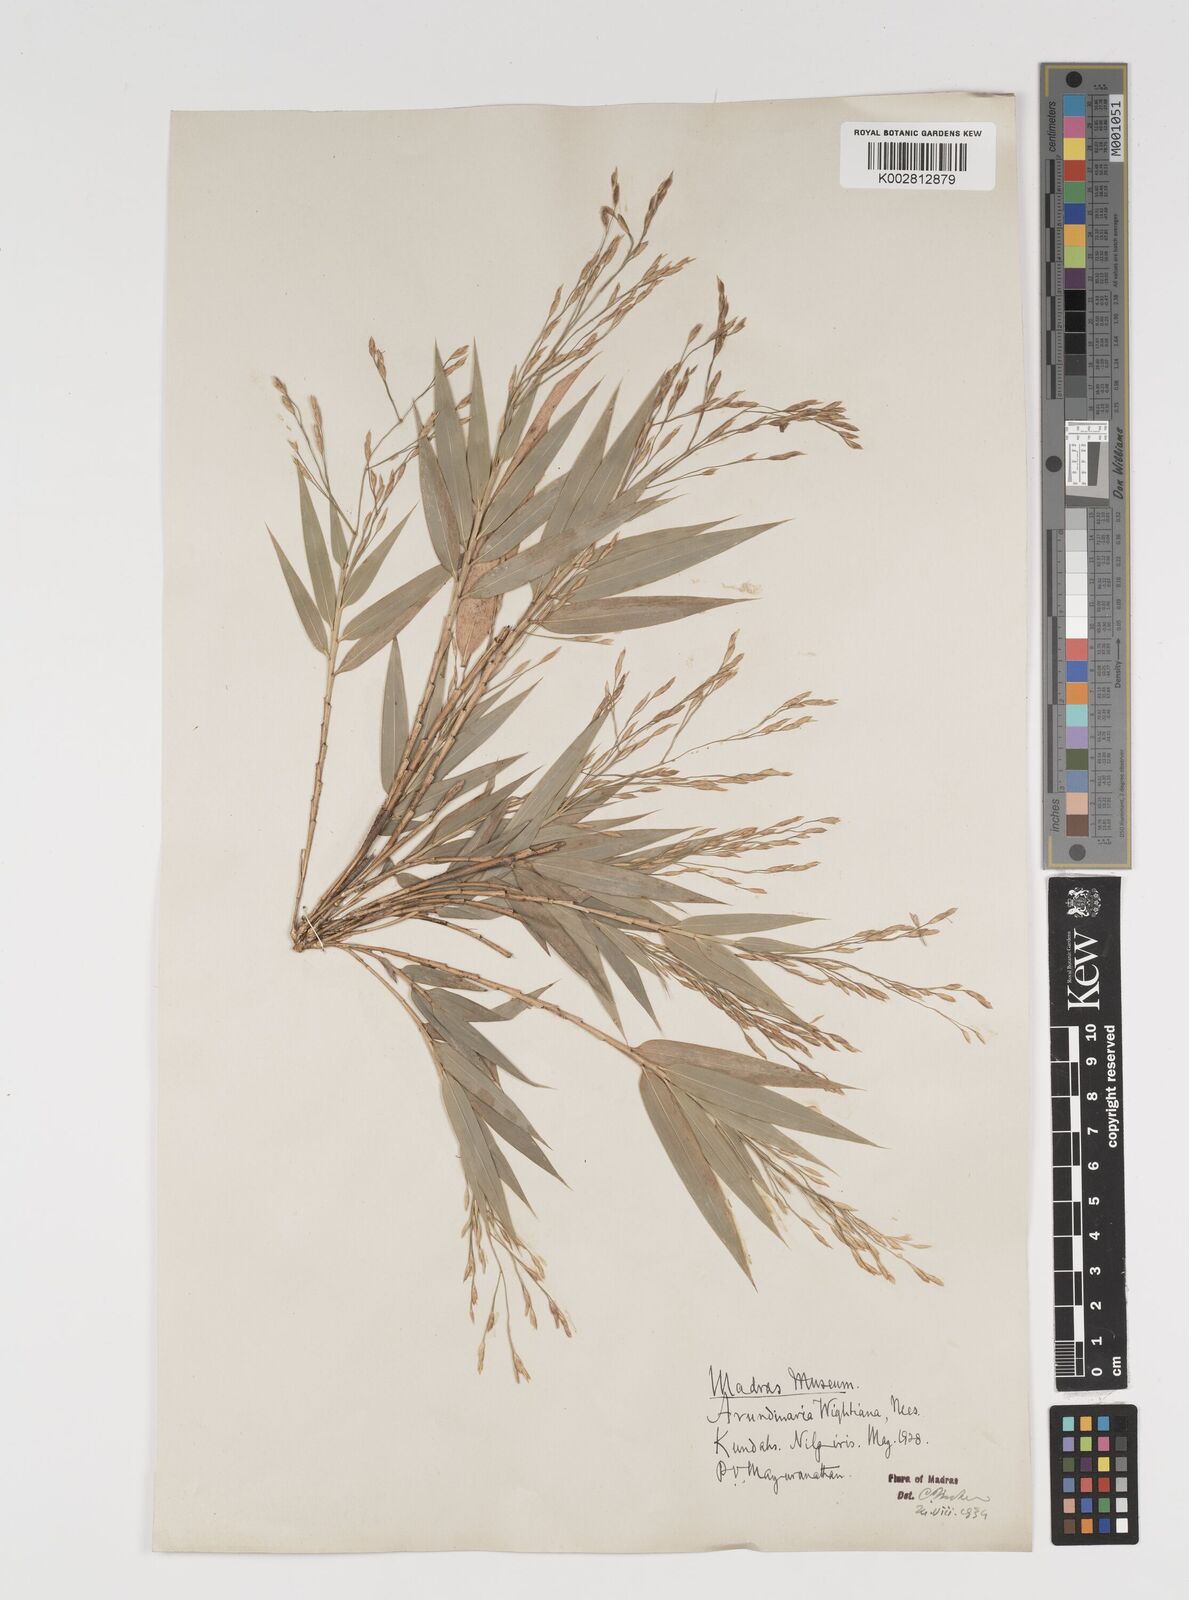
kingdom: Plantae
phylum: Tracheophyta
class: Liliopsida
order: Poales
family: Poaceae
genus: Kuruna
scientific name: Kuruna wightiana
